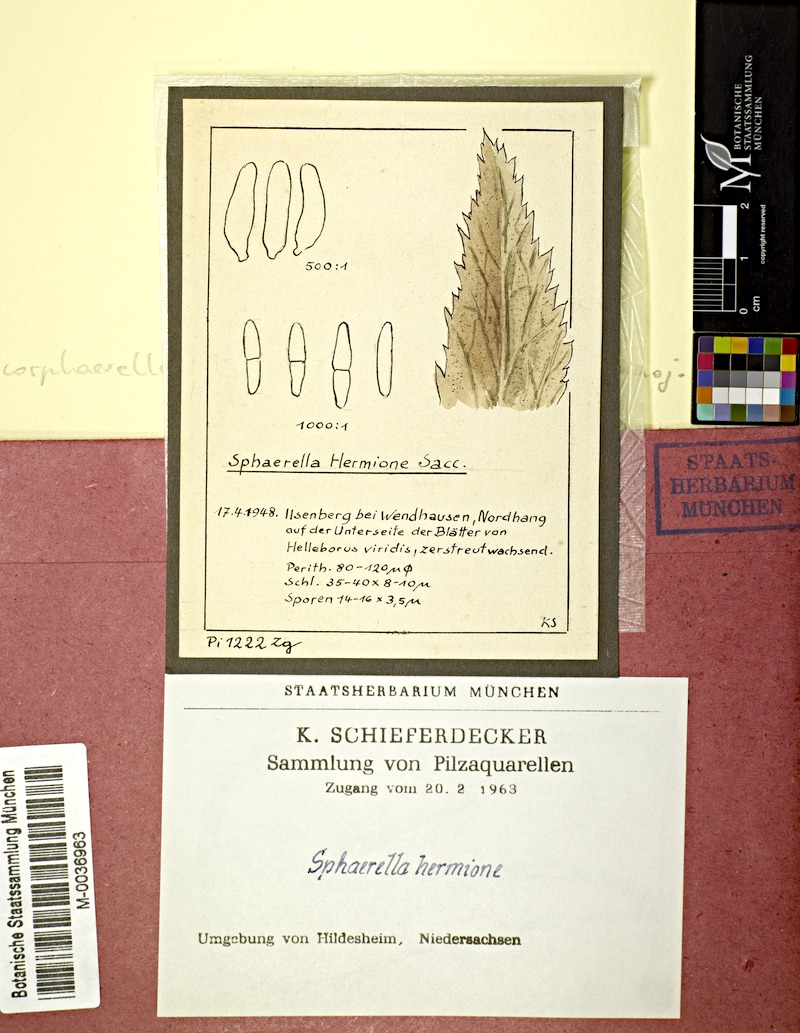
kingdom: Fungi
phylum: Ascomycota
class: Dothideomycetes
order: Mycosphaerellales
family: Mycosphaerellaceae
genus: Mycosphaerella
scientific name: Mycosphaerella hermione
